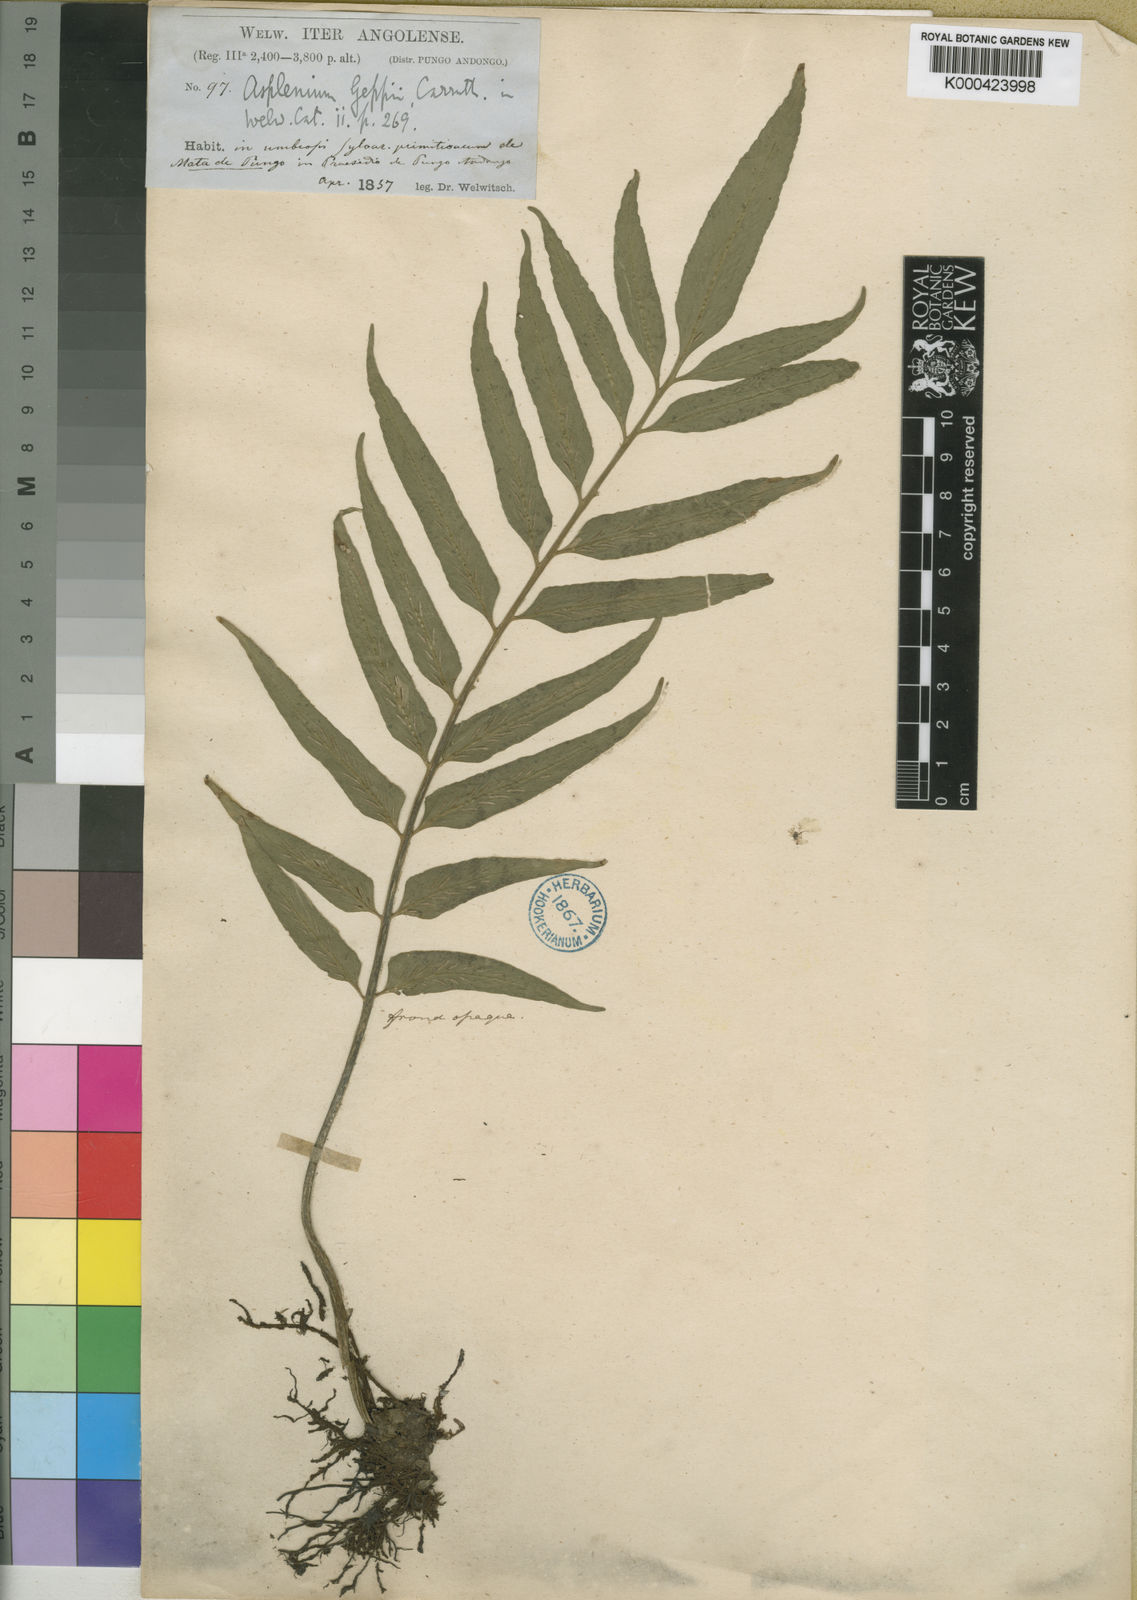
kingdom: Plantae
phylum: Tracheophyta
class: Polypodiopsida
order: Polypodiales
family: Aspleniaceae
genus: Asplenium
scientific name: Asplenium anisophyllum
